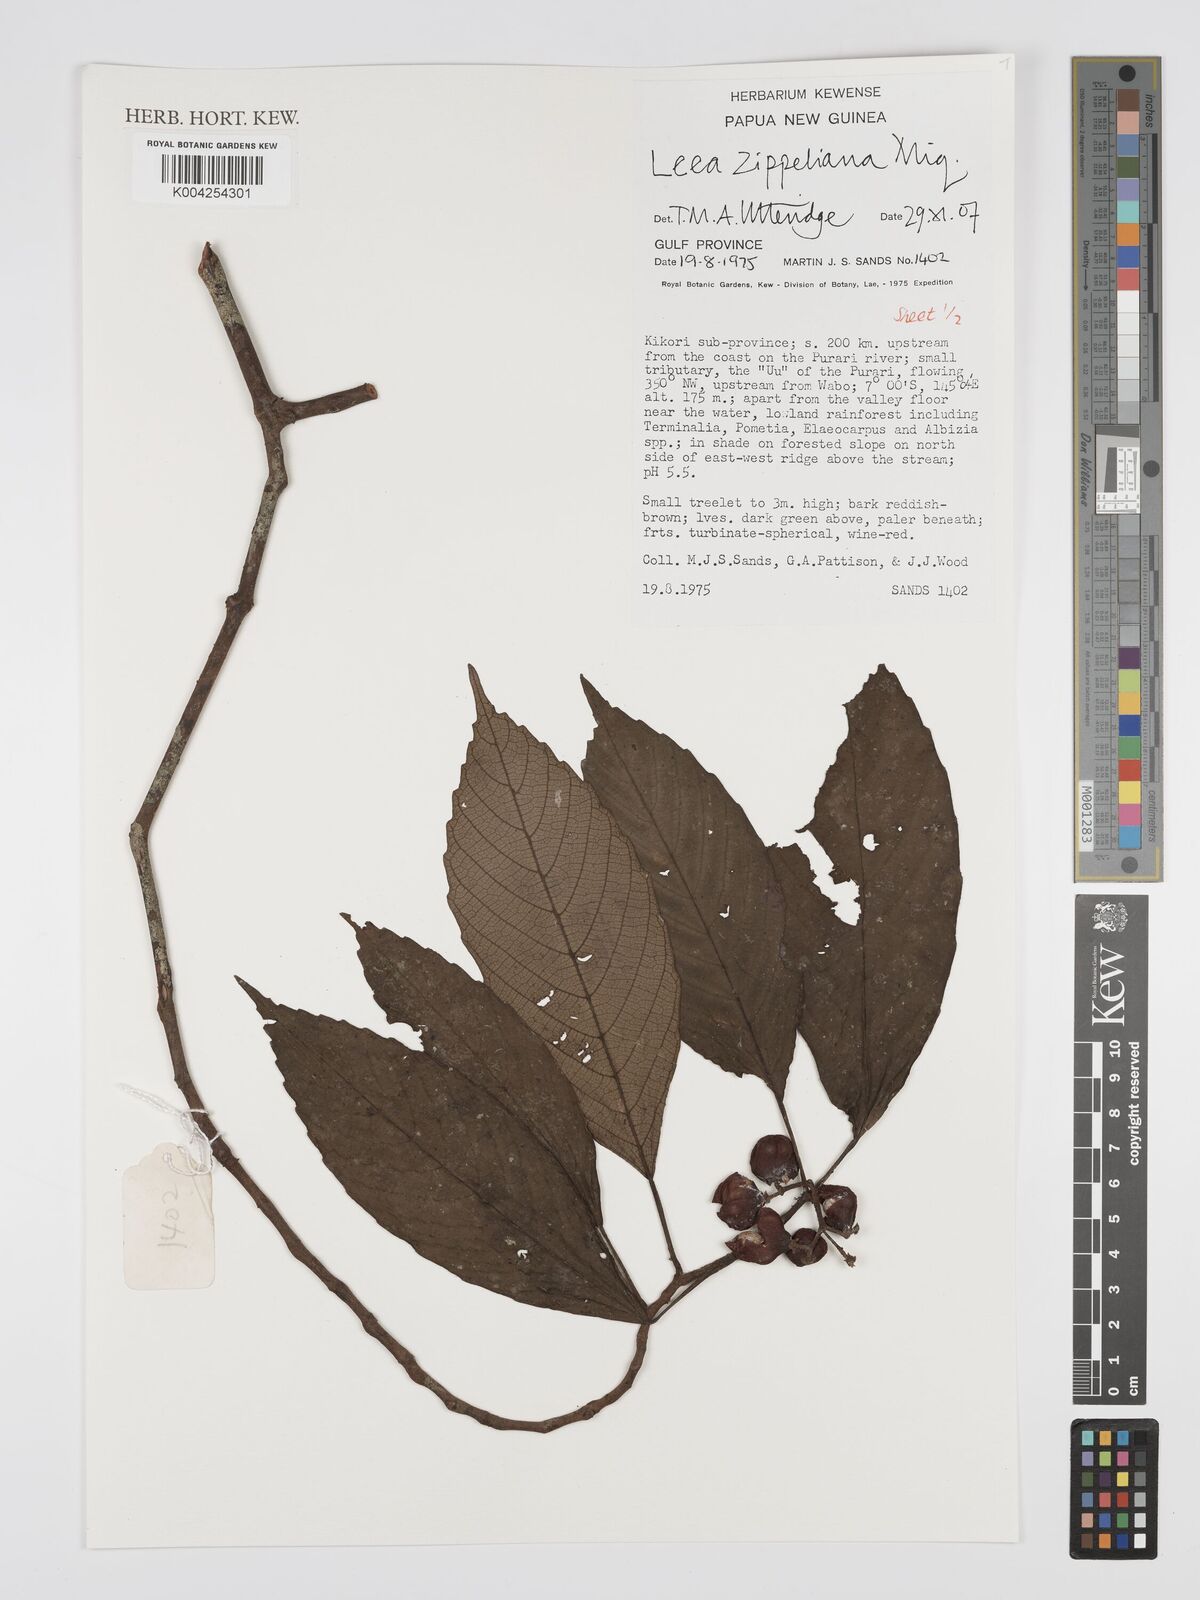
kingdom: Plantae
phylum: Tracheophyta
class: Magnoliopsida
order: Vitales
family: Vitaceae
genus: Leea
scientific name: Leea zippeliana
